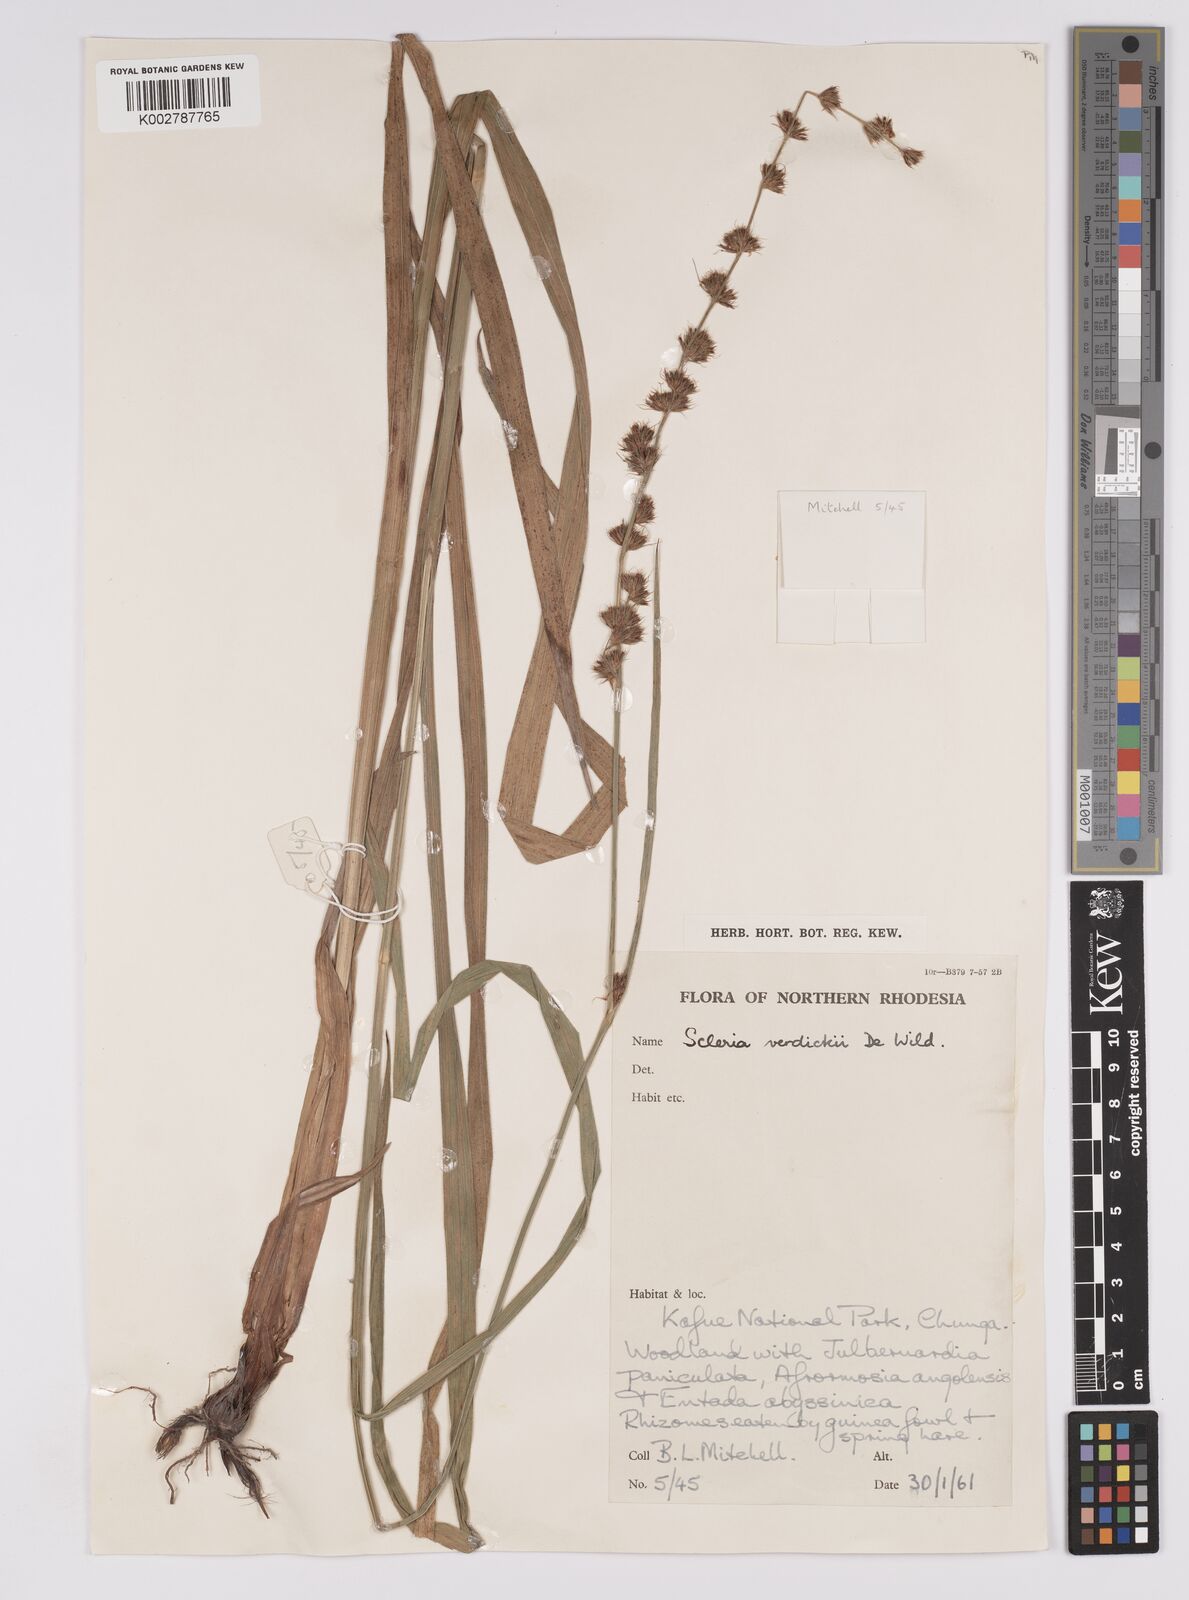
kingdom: Plantae
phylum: Tracheophyta
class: Liliopsida
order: Poales
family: Cyperaceae
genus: Scleria
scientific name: Scleria bulbifera
